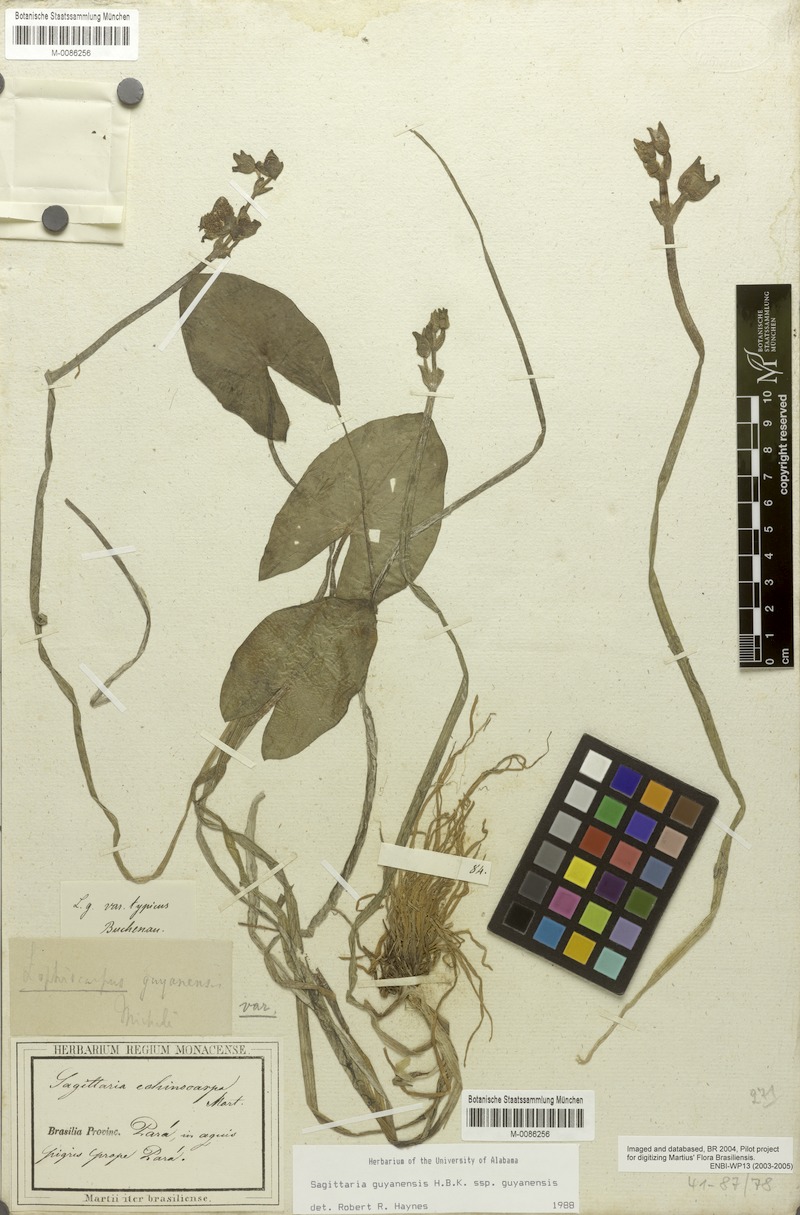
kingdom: Plantae
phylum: Tracheophyta
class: Liliopsida
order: Alismatales
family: Alismataceae
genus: Sagittaria
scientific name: Sagittaria guayanensis
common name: Guyanese arrowhead
